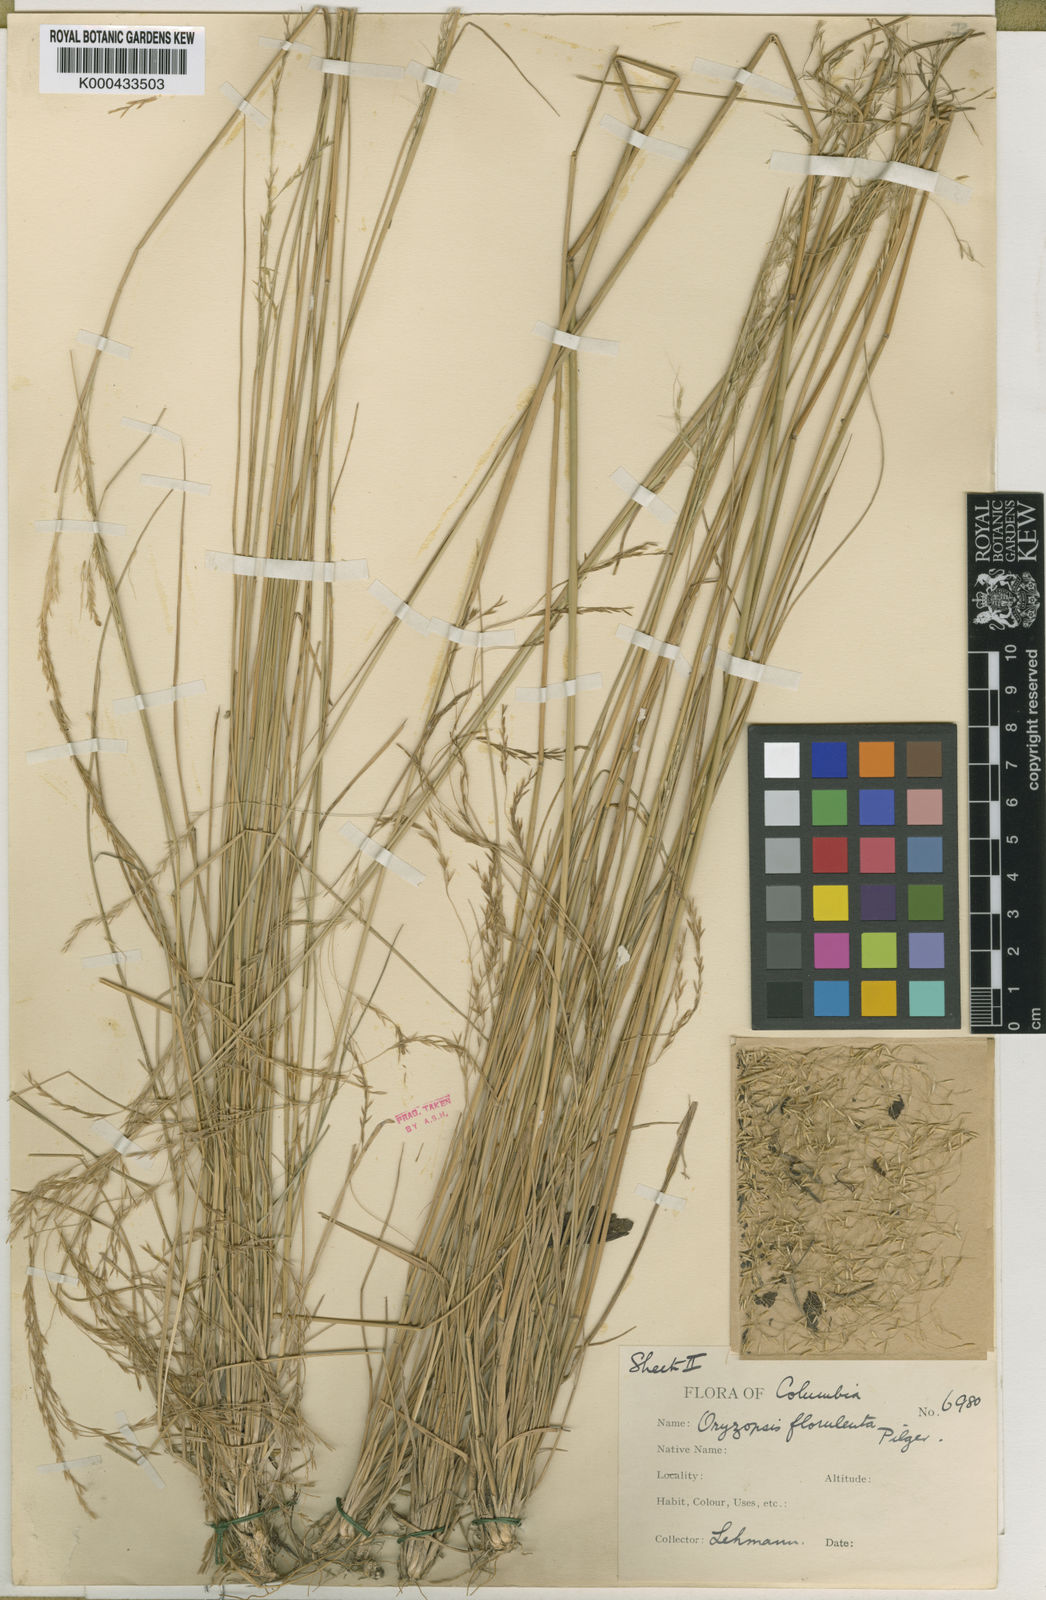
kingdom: Plantae
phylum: Tracheophyta
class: Liliopsida
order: Poales
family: Poaceae
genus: Nassella
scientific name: Nassella caespitosa
